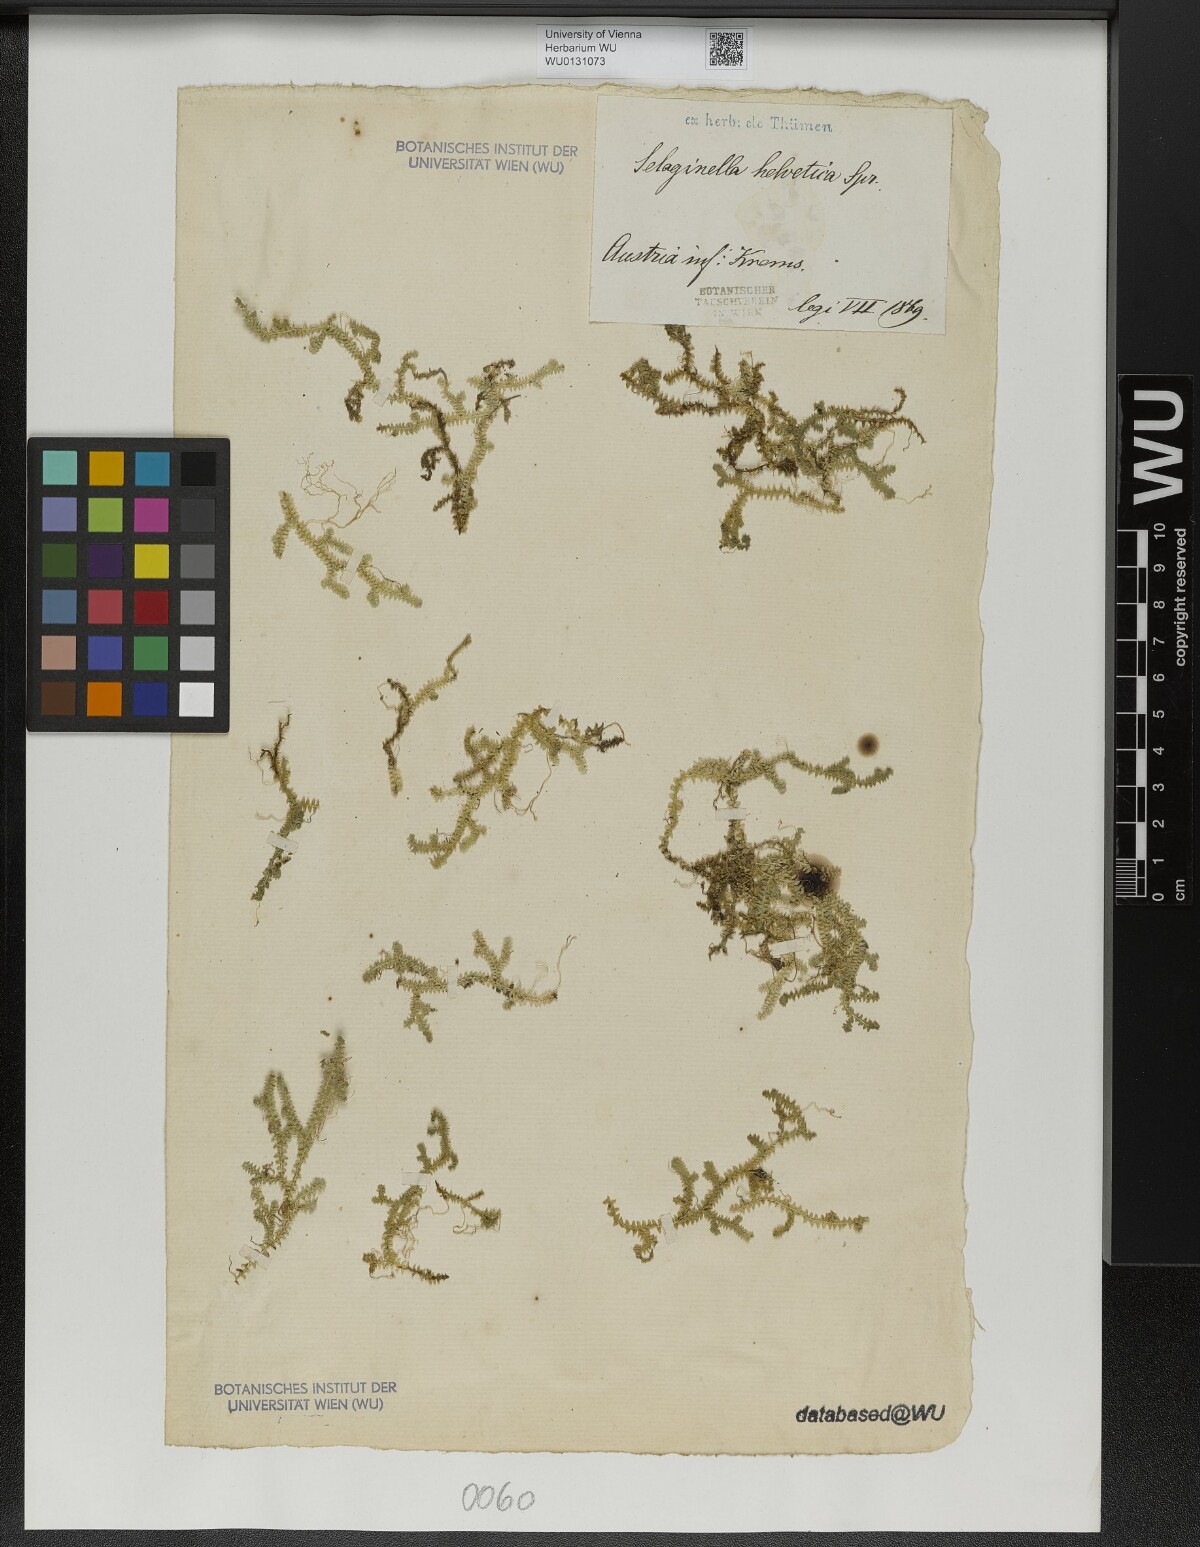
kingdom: Plantae
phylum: Tracheophyta
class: Lycopodiopsida
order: Selaginellales
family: Selaginellaceae
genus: Selaginella
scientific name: Selaginella helvetica
